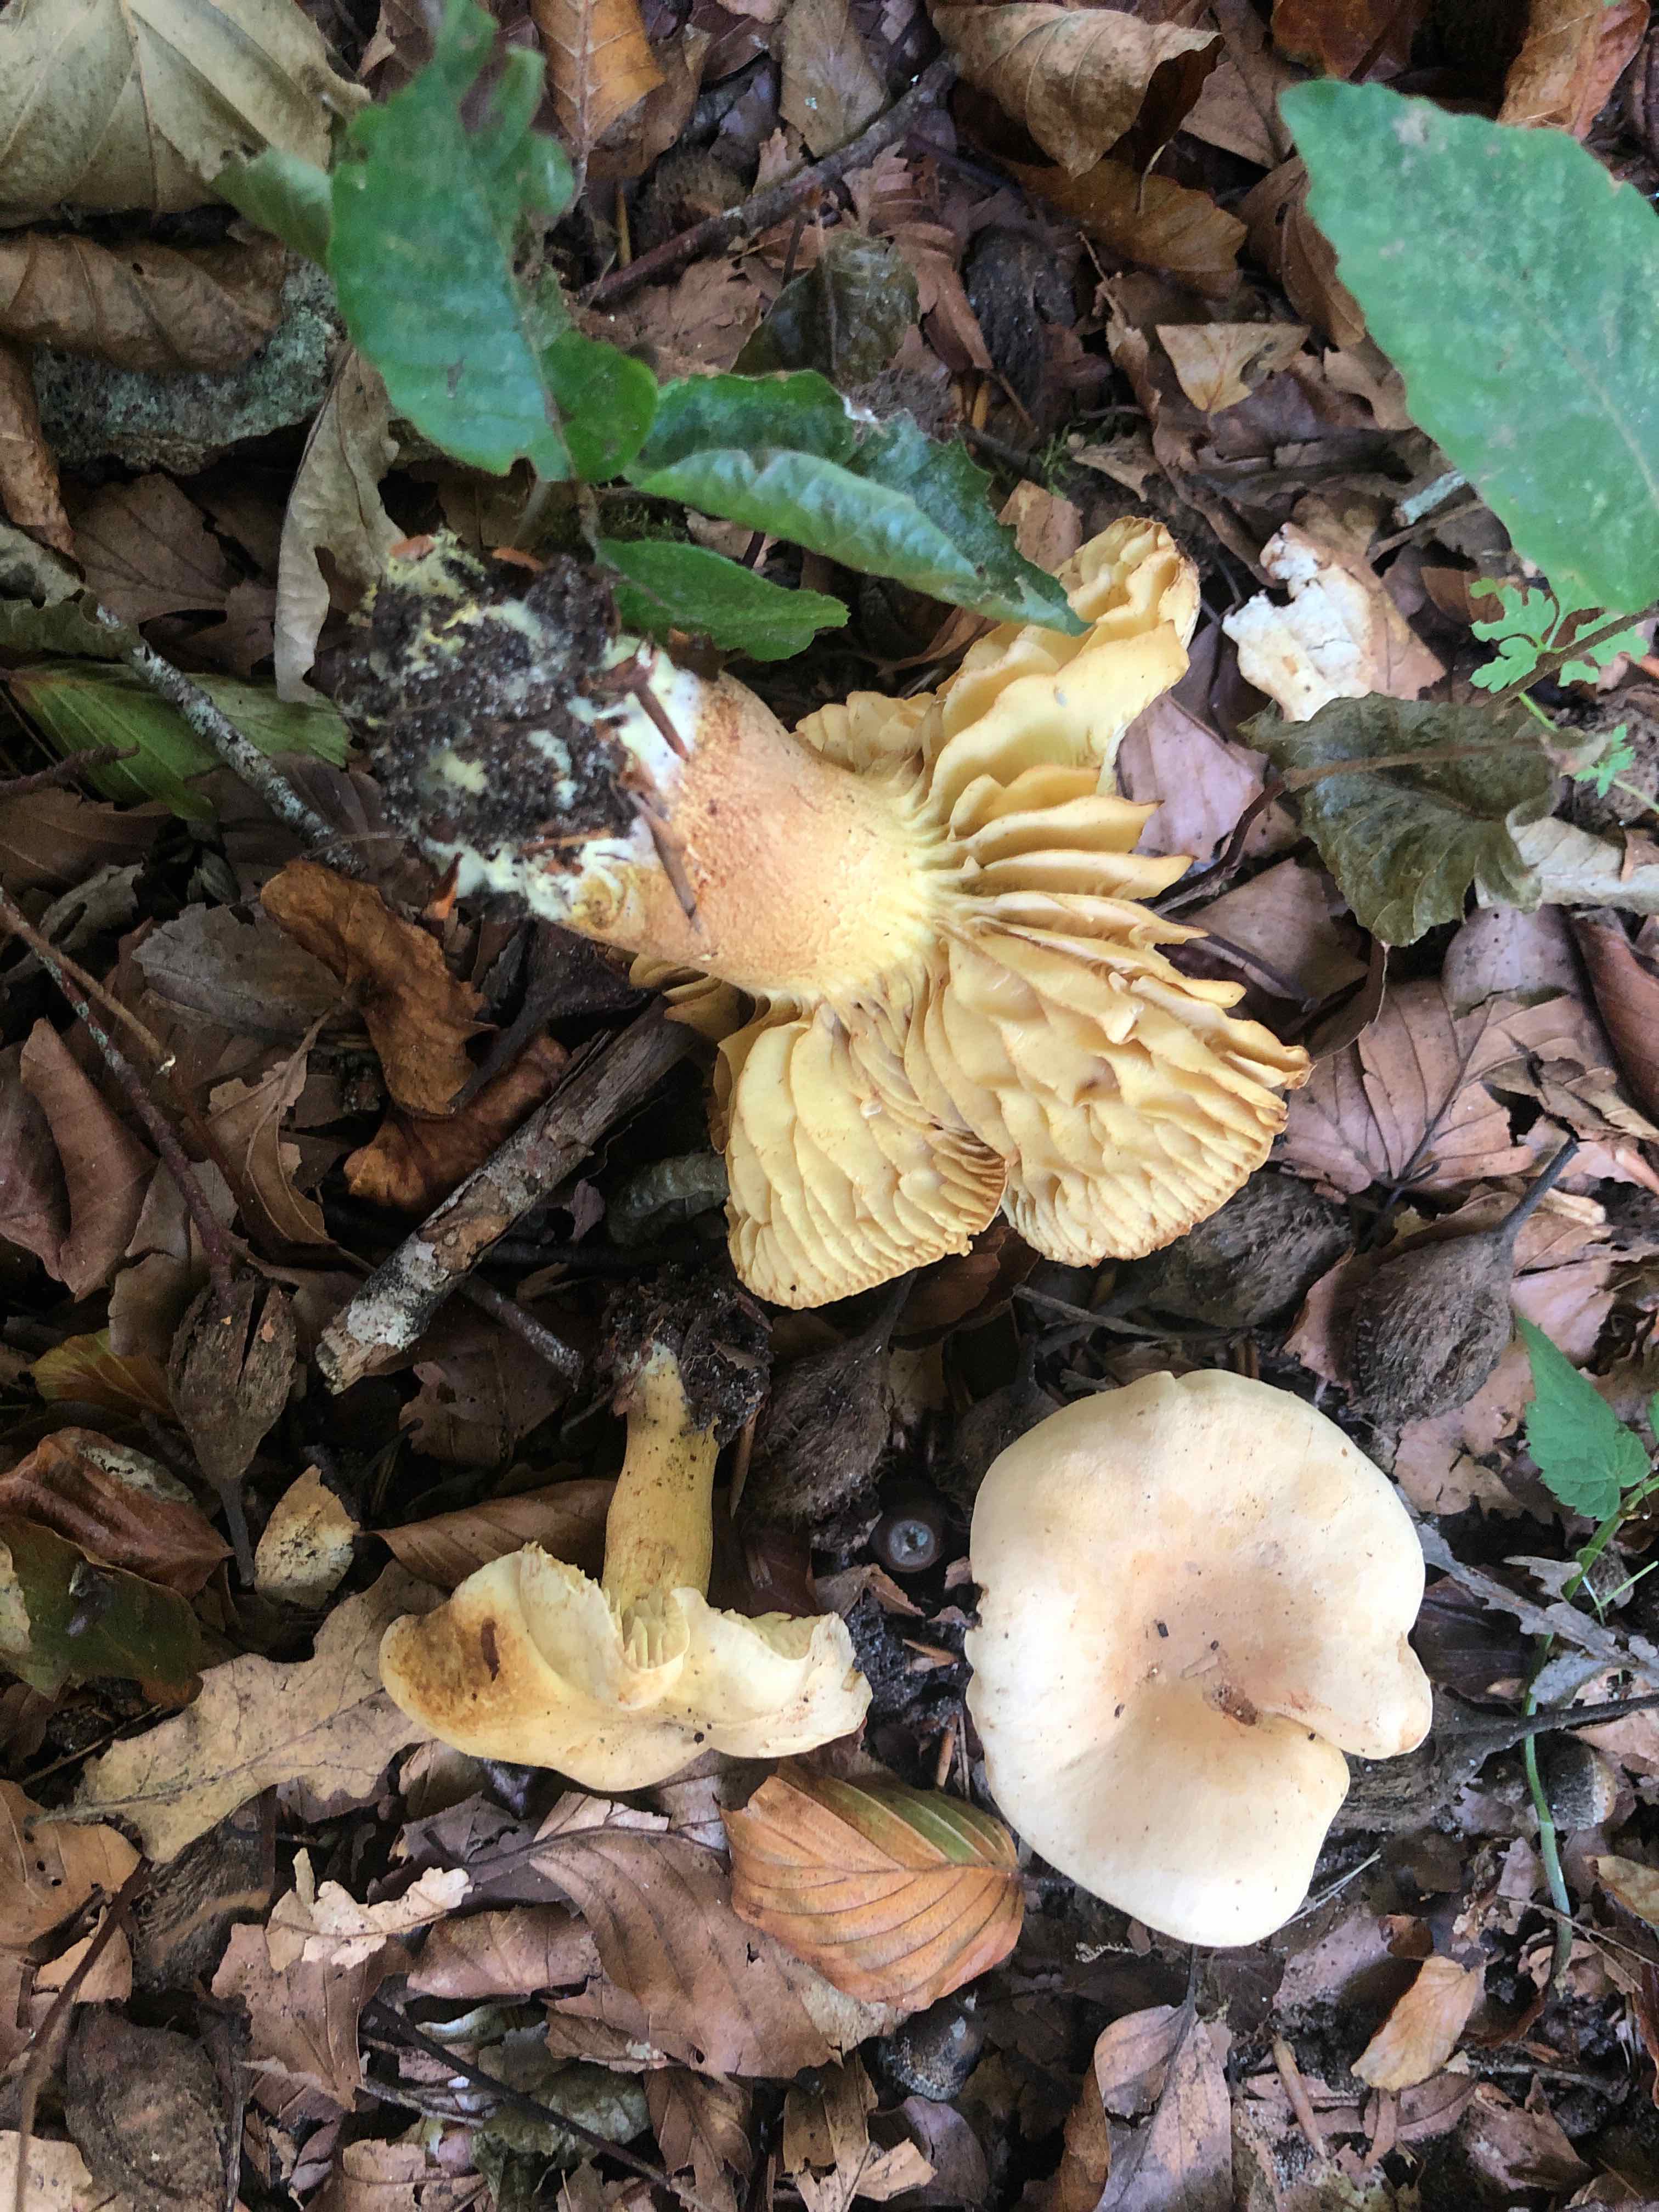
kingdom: Fungi
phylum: Basidiomycota
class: Agaricomycetes
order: Agaricales
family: Tricholomataceae
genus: Tricholoma
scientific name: Tricholoma sulphureum
